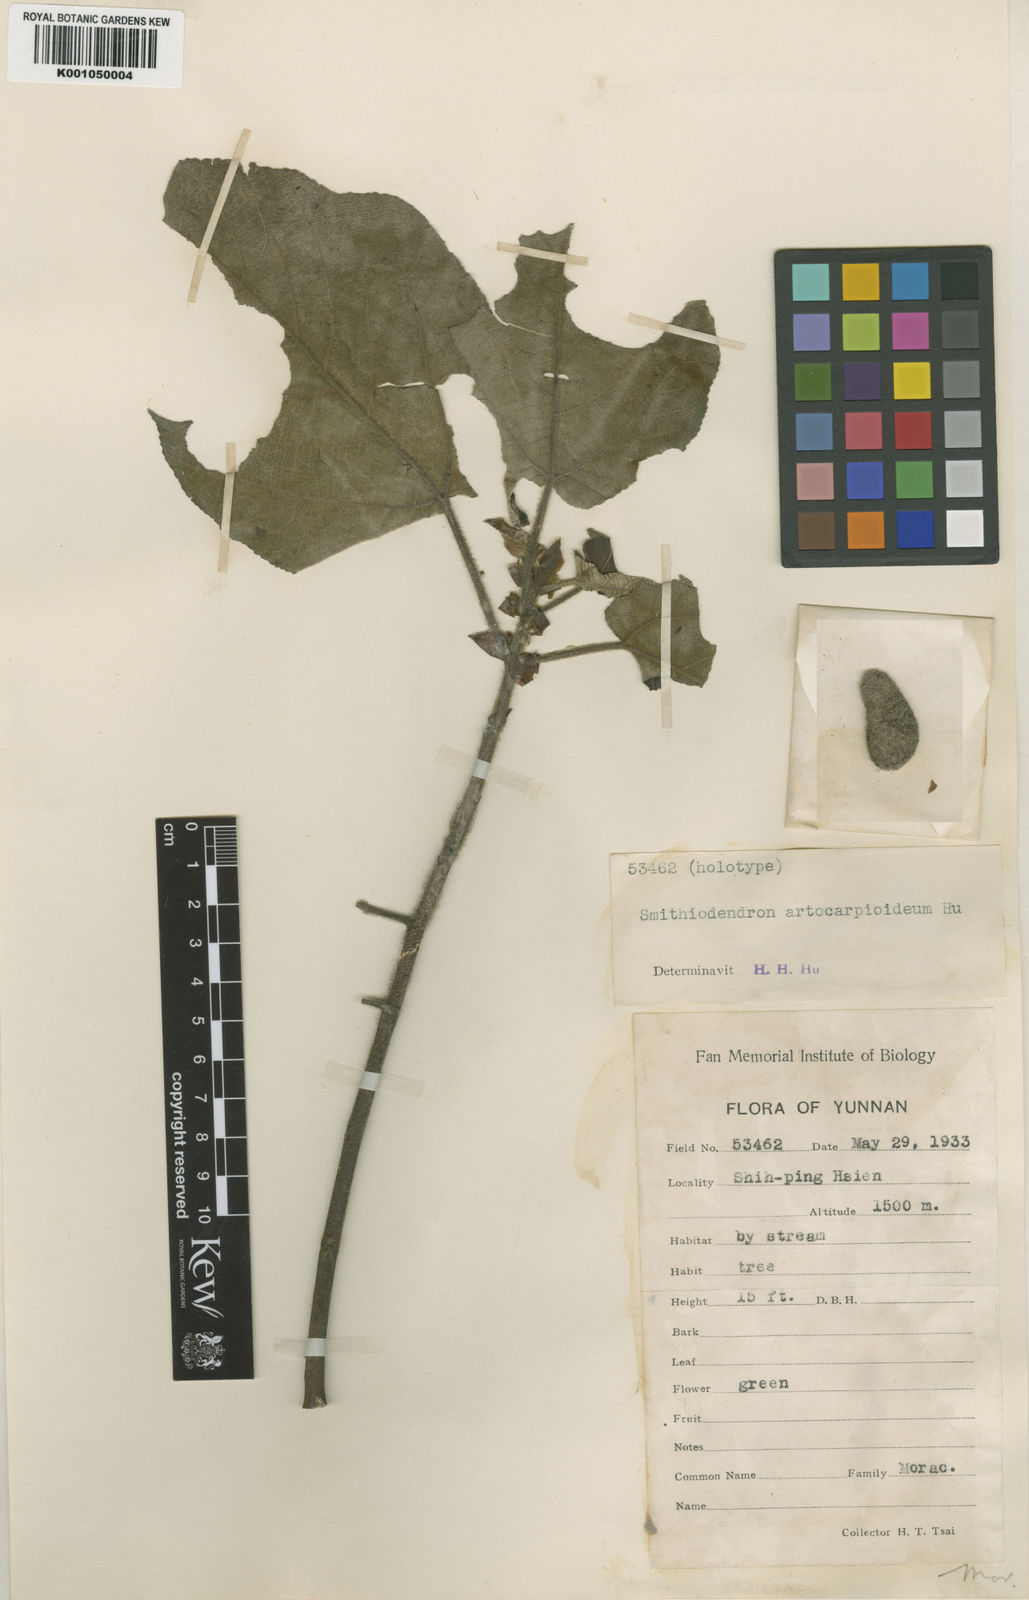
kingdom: Plantae
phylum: Tracheophyta
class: Magnoliopsida
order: Rosales
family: Moraceae
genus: Broussonetia
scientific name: Broussonetia papyrifera
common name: Paper mulberry
